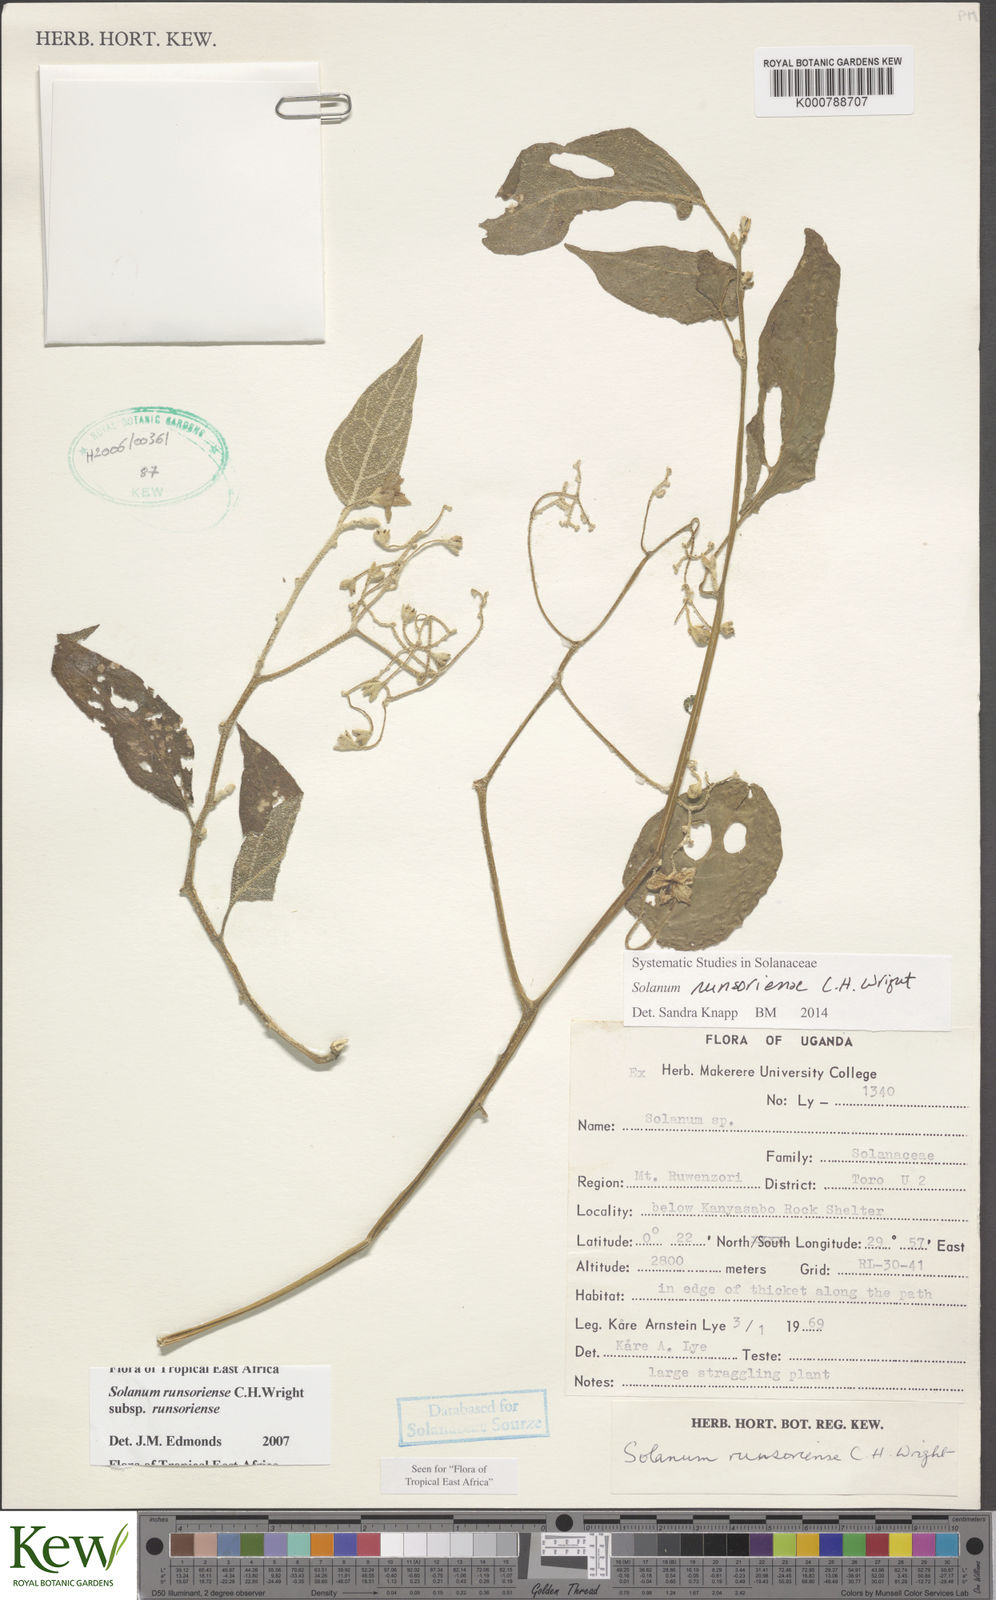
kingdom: Plantae
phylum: Tracheophyta
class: Magnoliopsida
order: Solanales
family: Solanaceae
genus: Solanum
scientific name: Solanum runsoriense
